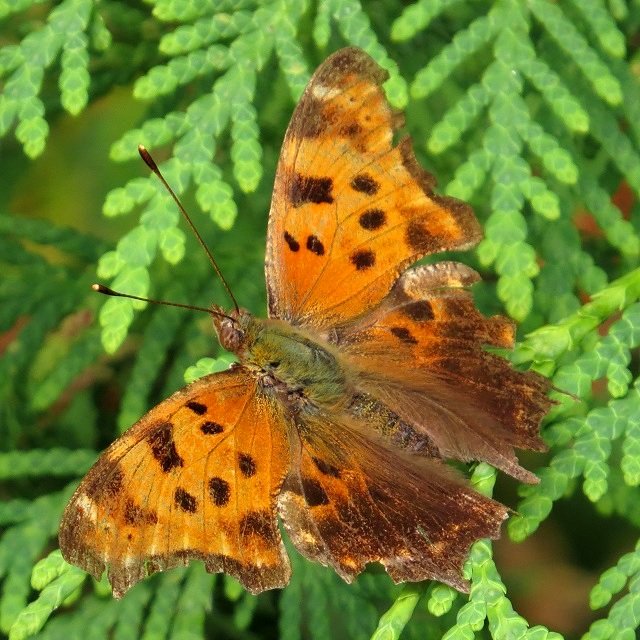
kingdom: Animalia
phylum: Arthropoda
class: Insecta
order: Lepidoptera
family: Nymphalidae
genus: Polygonia
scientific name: Polygonia comma
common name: Eastern Comma
